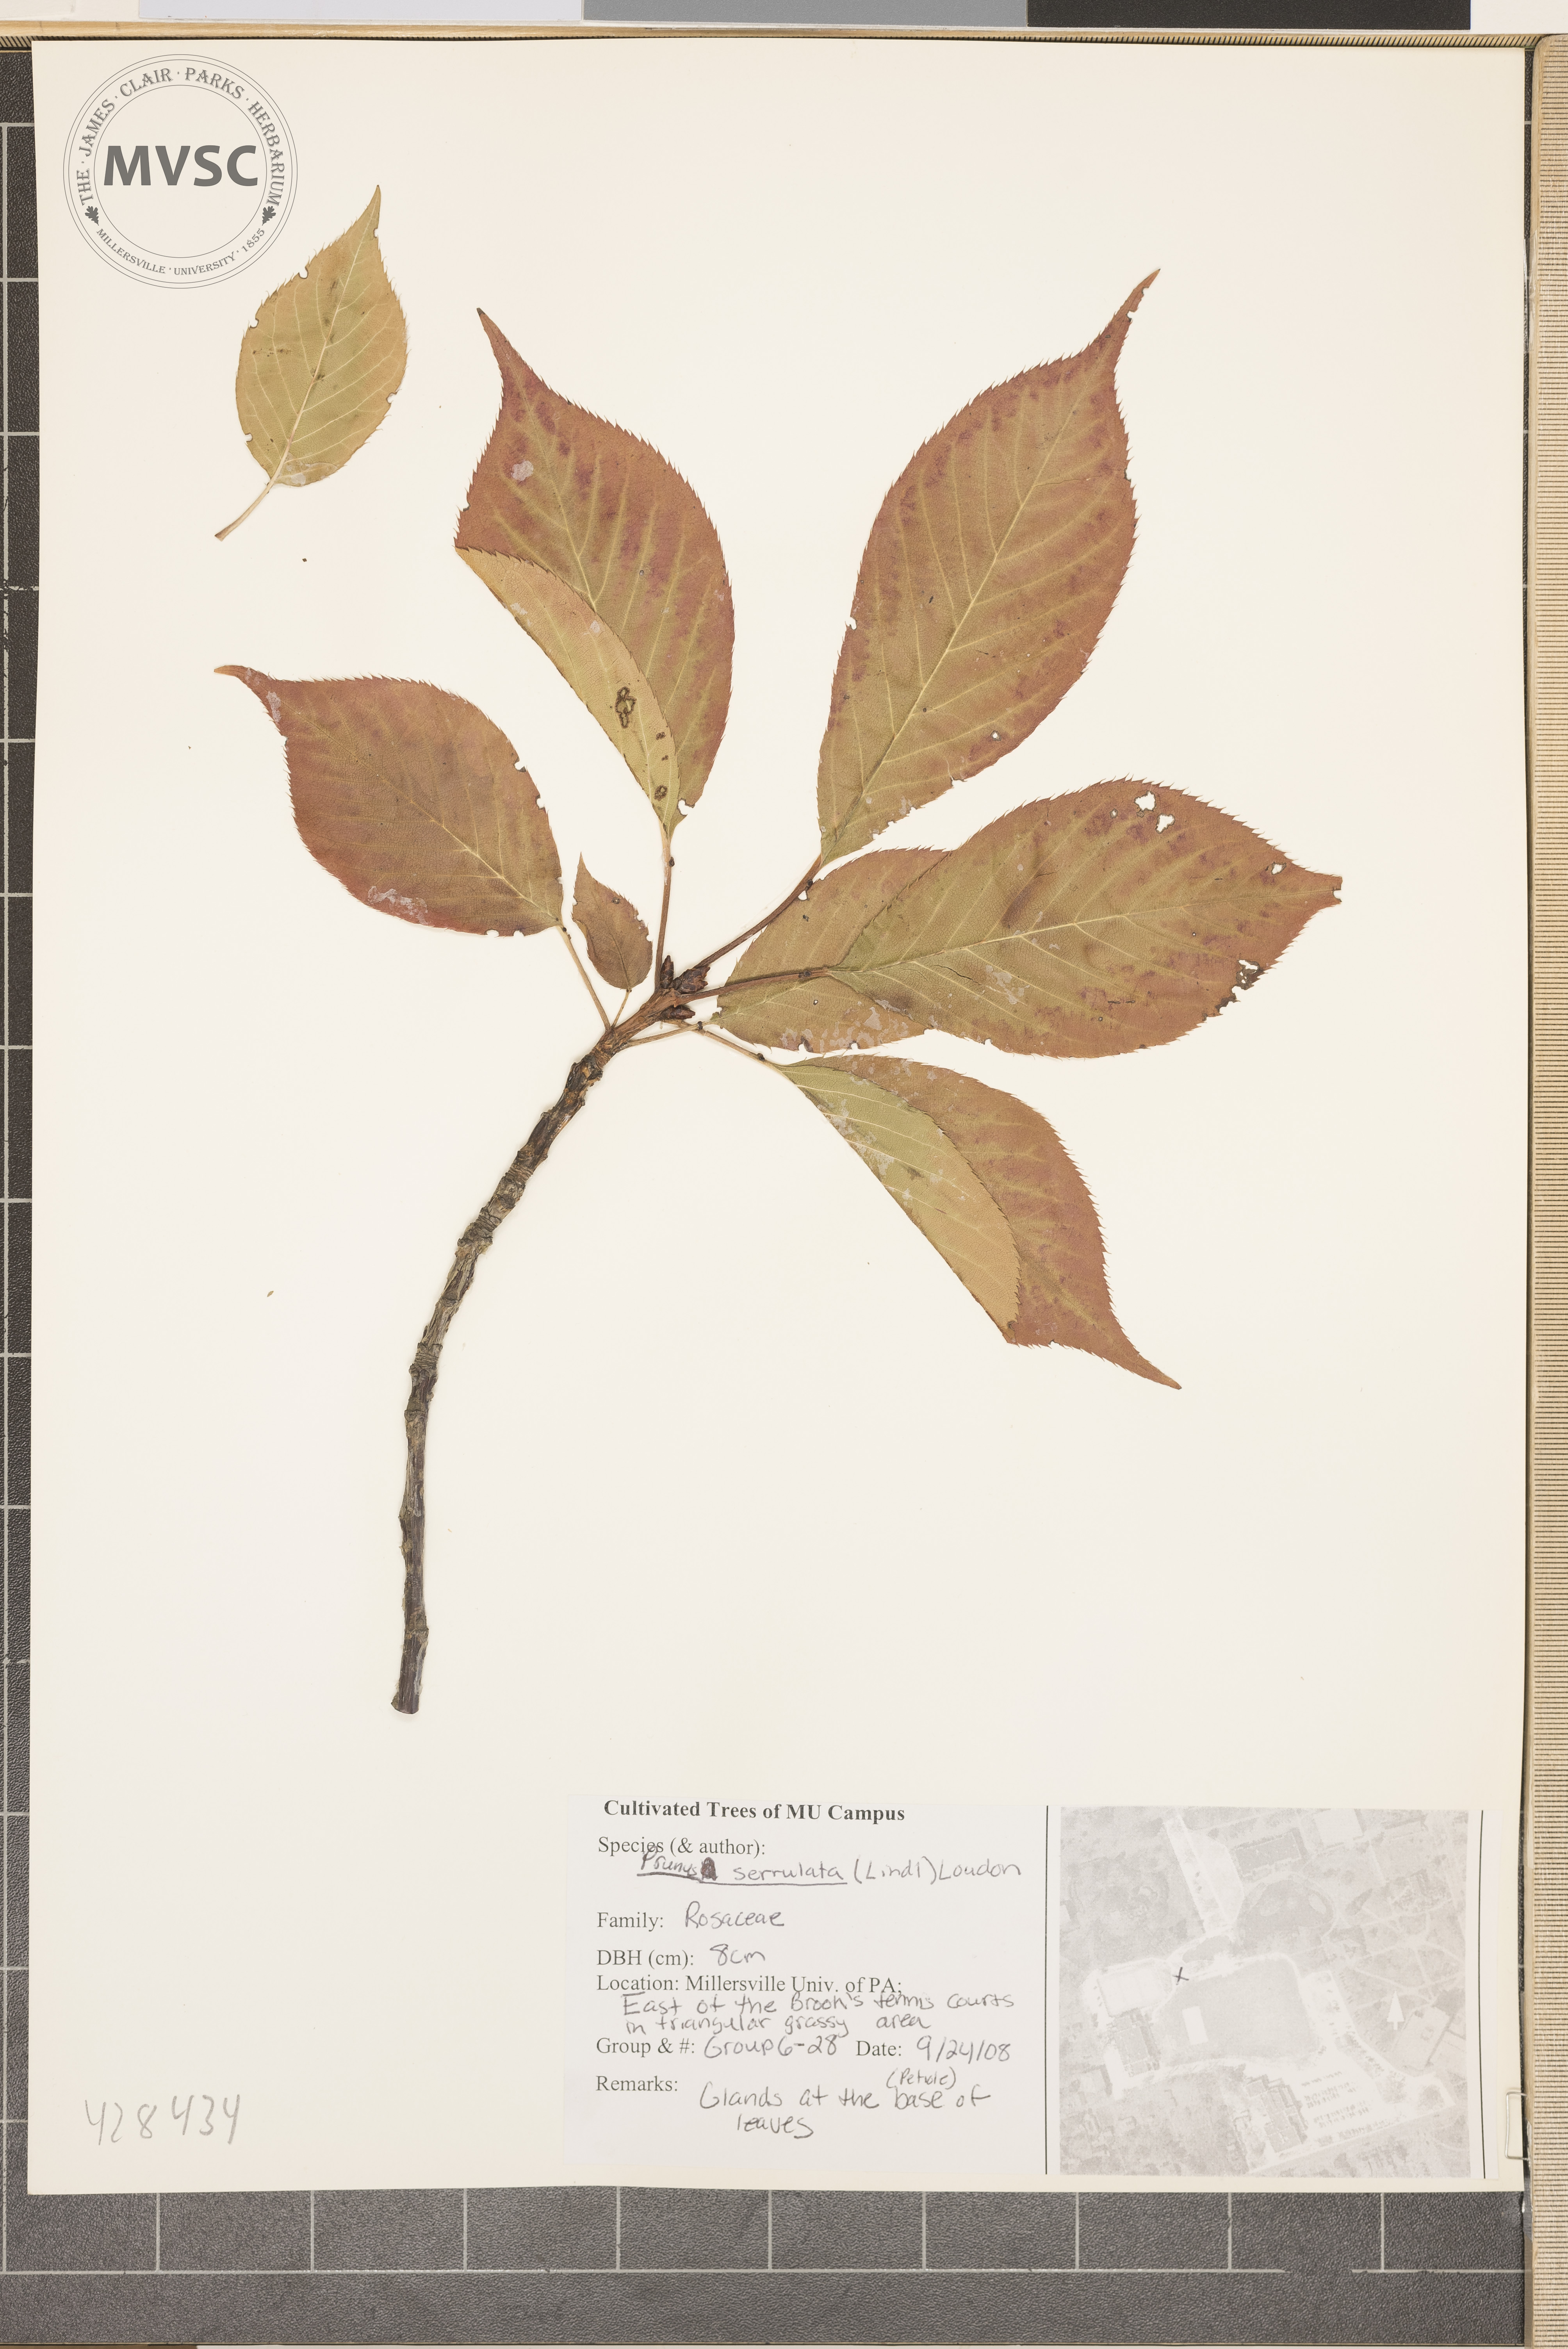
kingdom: Plantae
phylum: Tracheophyta
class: Magnoliopsida
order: Rosales
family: Rosaceae
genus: Prunus
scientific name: Prunus serrulata
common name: Oriental cherry
